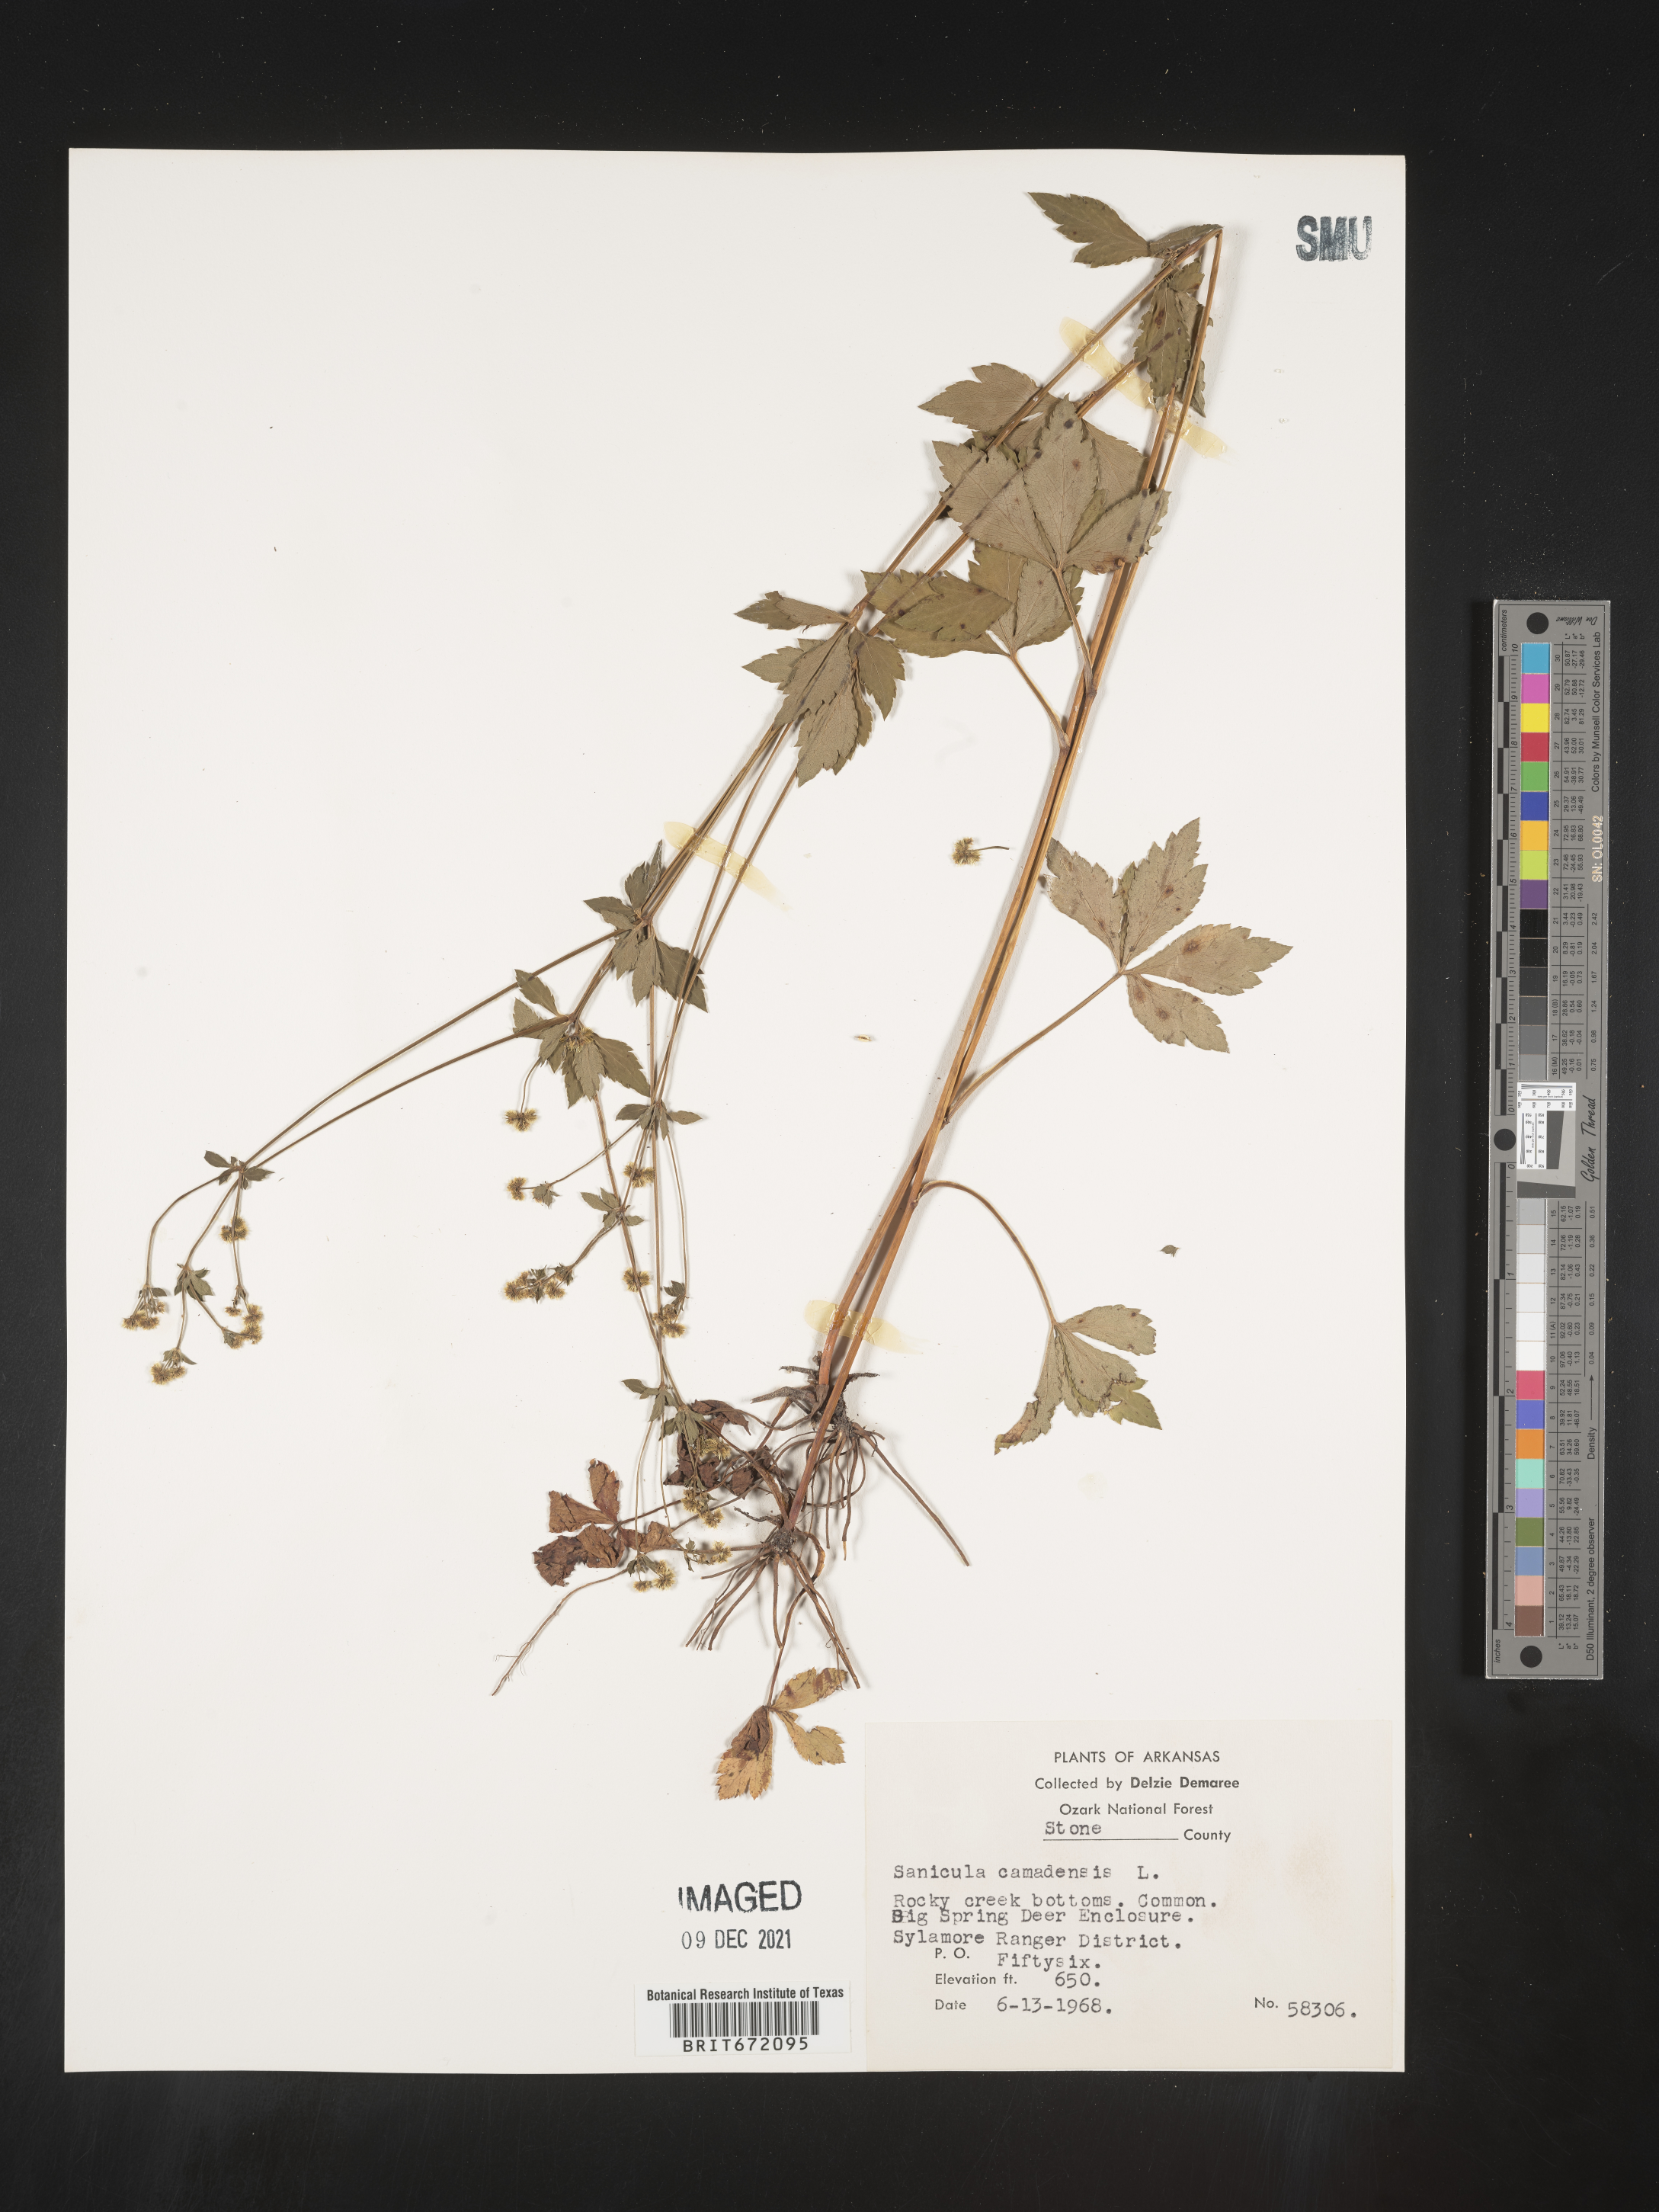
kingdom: Plantae
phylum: Tracheophyta
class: Magnoliopsida
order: Apiales
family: Apiaceae
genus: Sanicula
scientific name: Sanicula canadensis
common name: Canada sanicle
